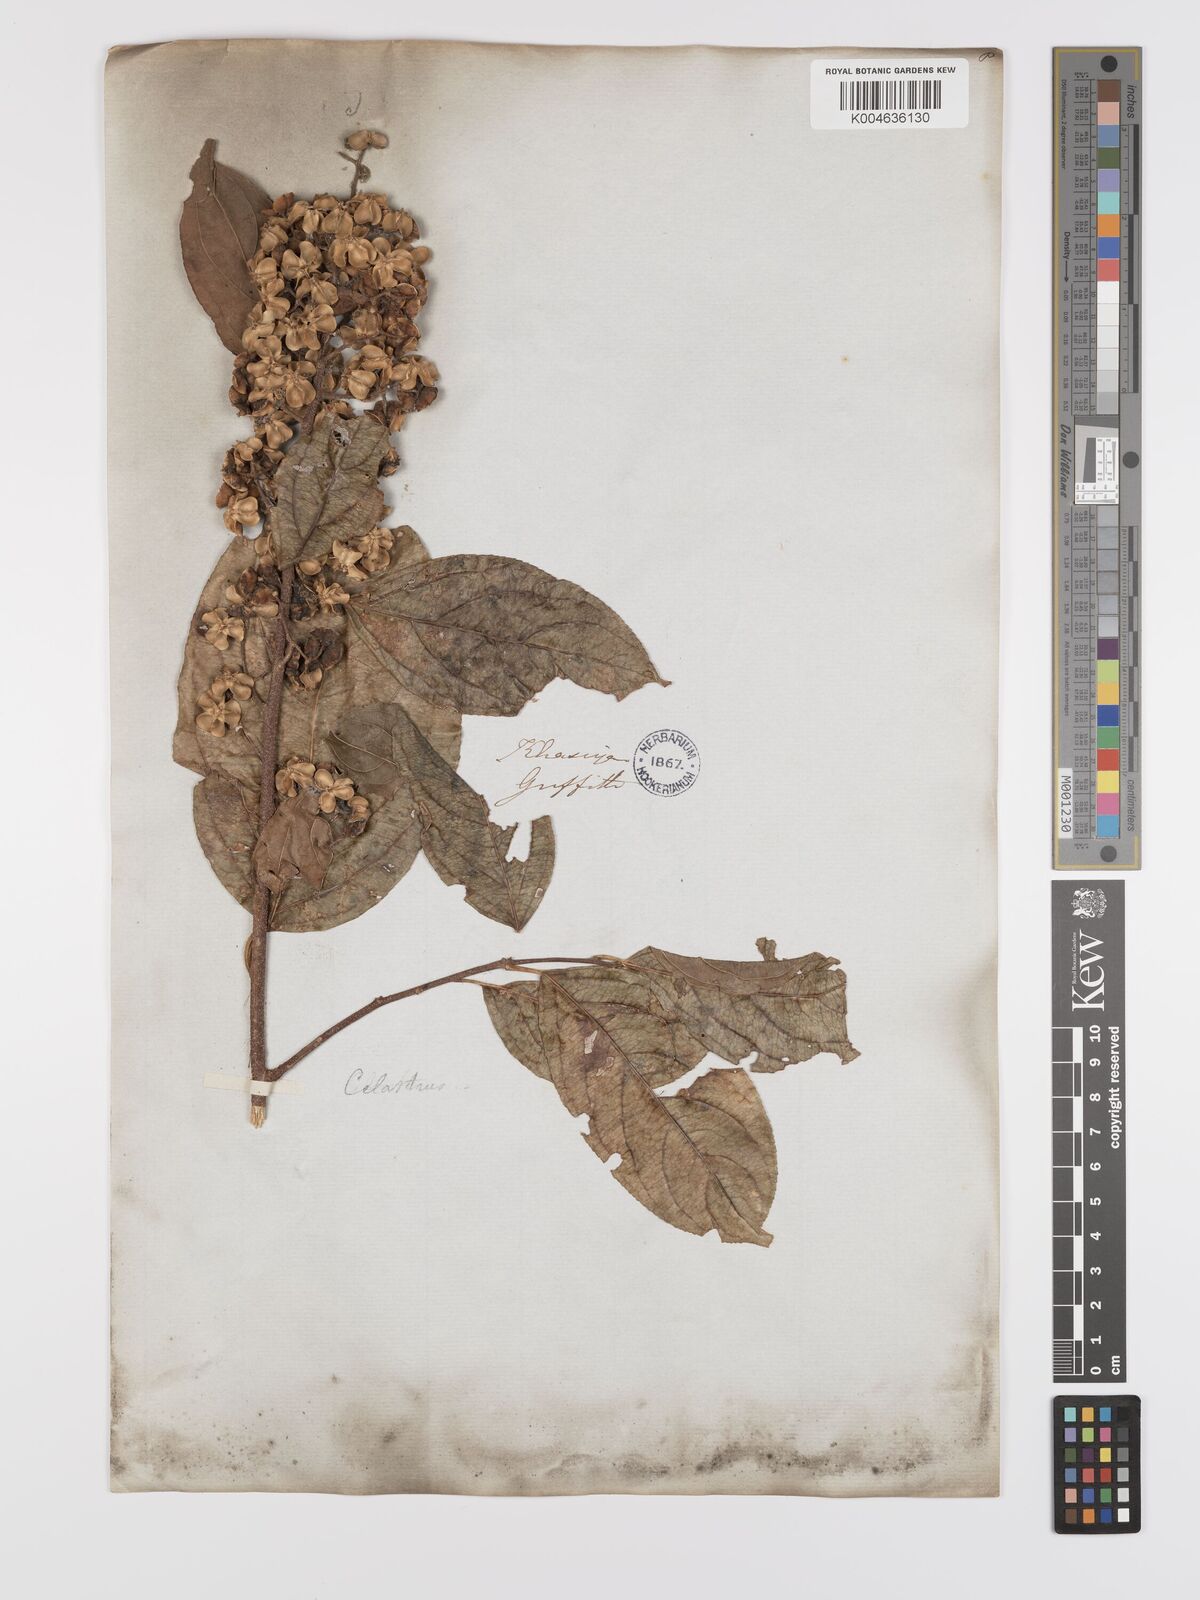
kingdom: Plantae
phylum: Tracheophyta
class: Magnoliopsida
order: Celastrales
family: Celastraceae
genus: Celastrus
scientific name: Celastrus paniculatus
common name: Oriental bittersweet; staff vine
